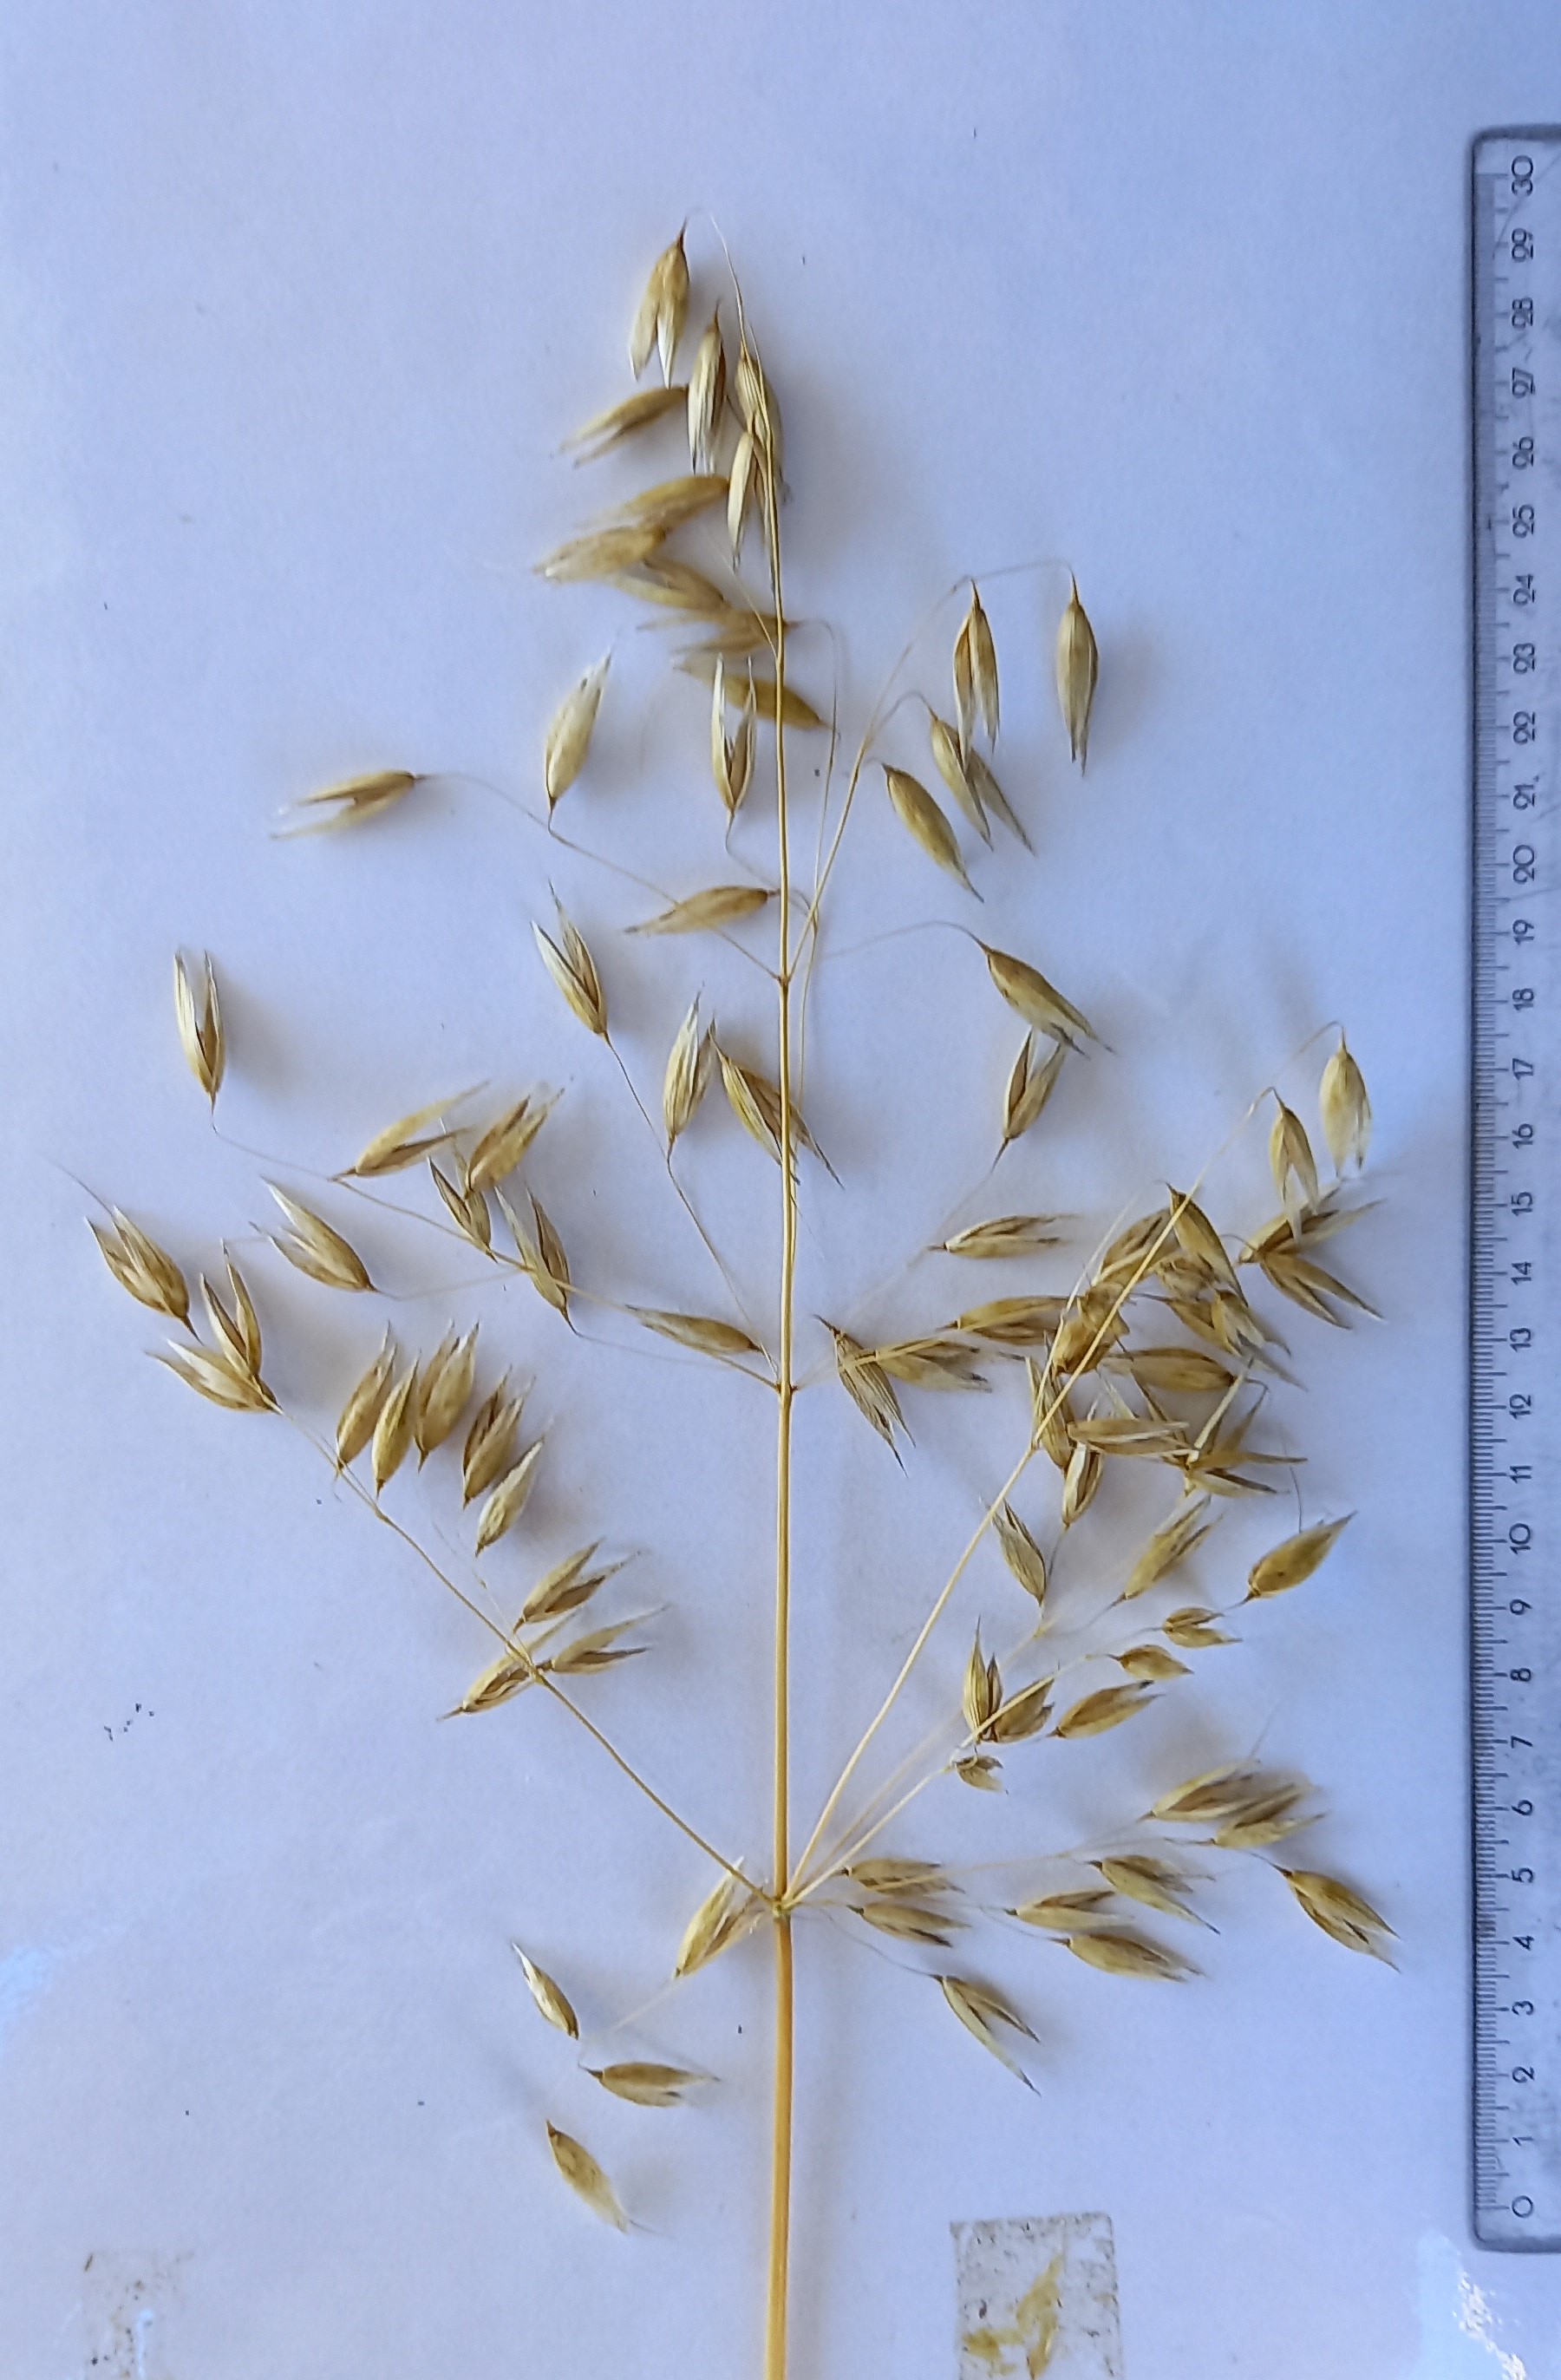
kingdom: Plantae
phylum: Tracheophyta
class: Liliopsida
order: Poales
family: Poaceae
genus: Avena
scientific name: Avena sativa
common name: Oat
